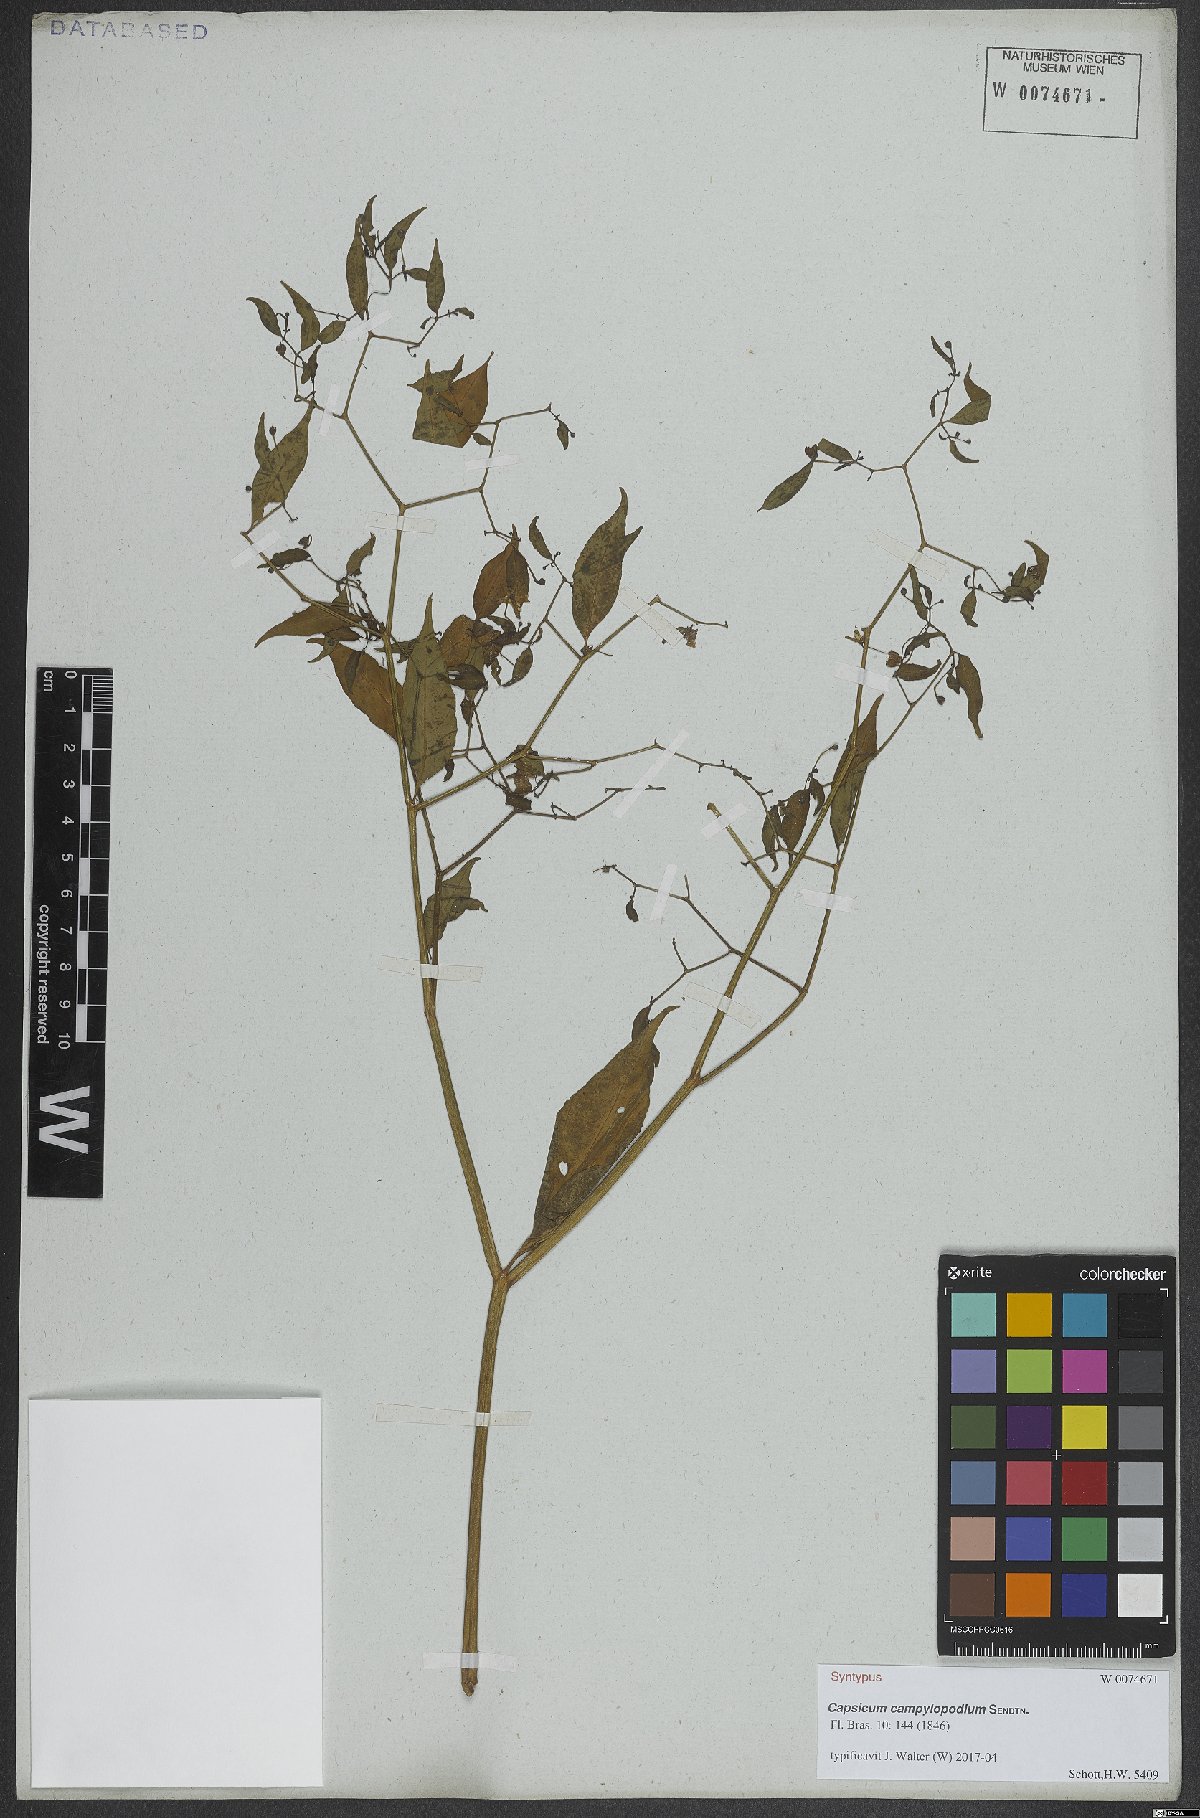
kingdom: Plantae
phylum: Tracheophyta
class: Magnoliopsida
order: Solanales
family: Solanaceae
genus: Capsicum
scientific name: Capsicum campylopodium
